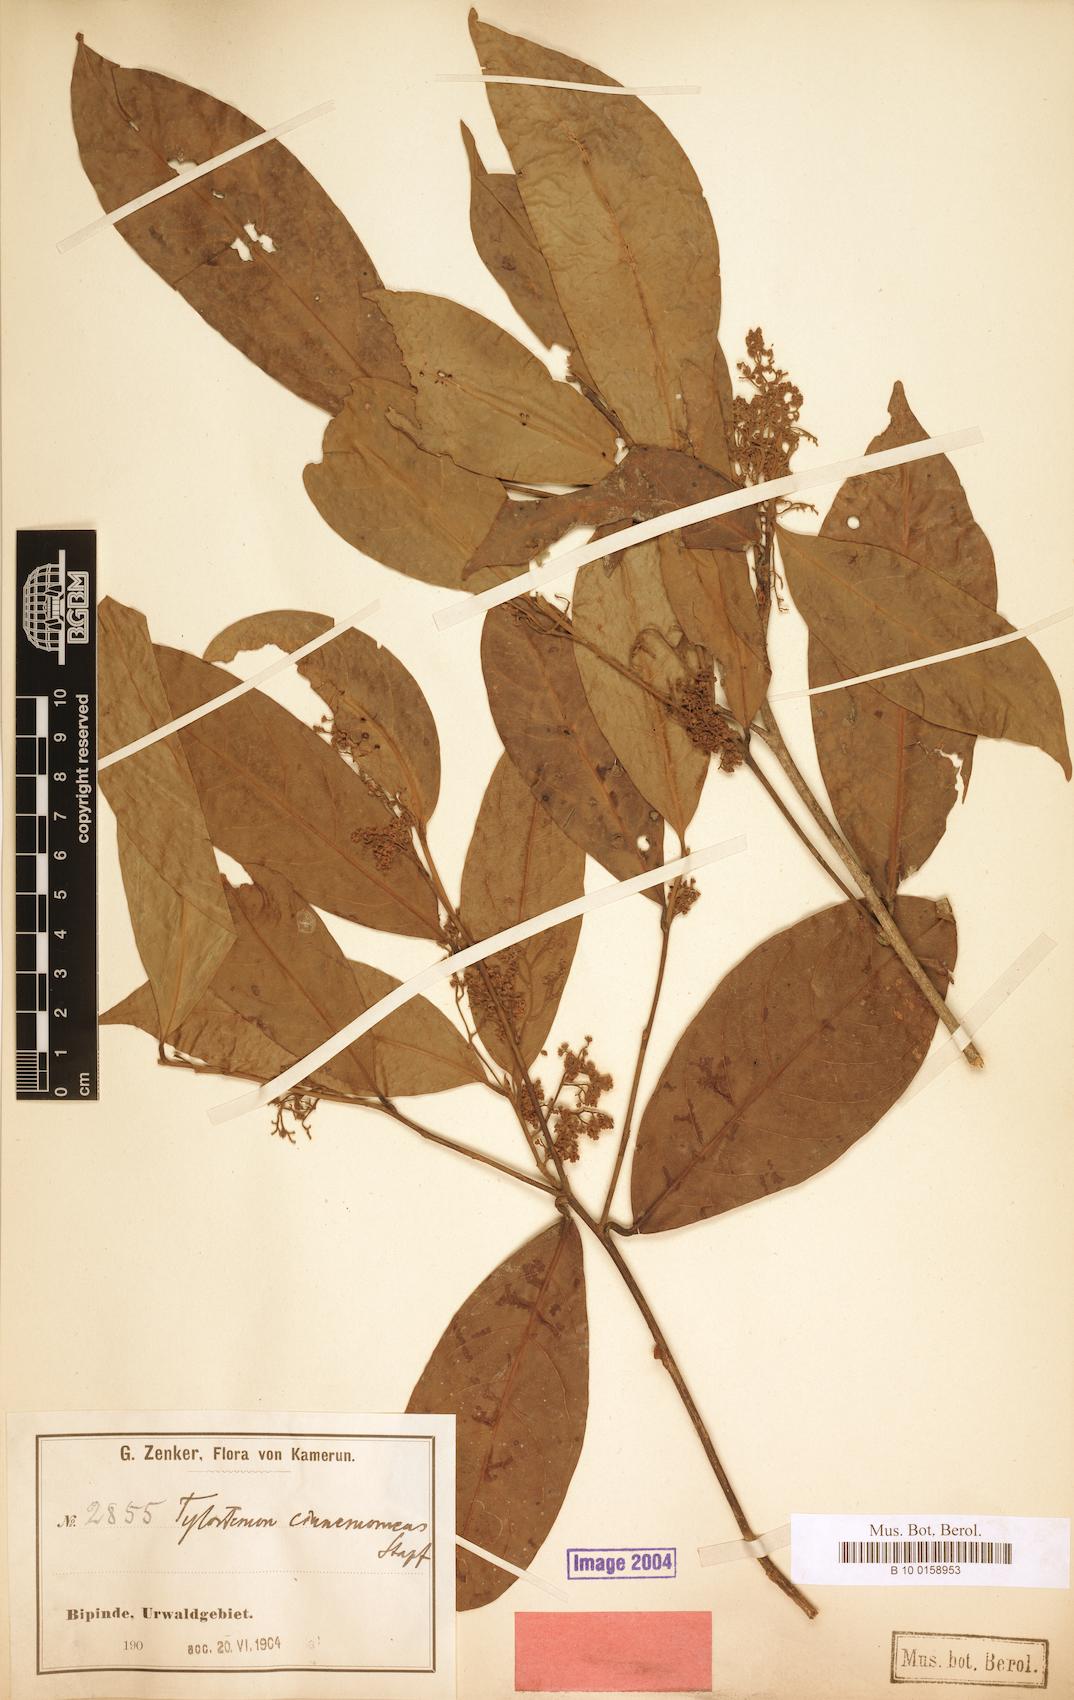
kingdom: Plantae
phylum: Tracheophyta
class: Magnoliopsida
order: Laurales
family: Lauraceae
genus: Beilschmiedia
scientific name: Beilschmiedia cinnamomea
